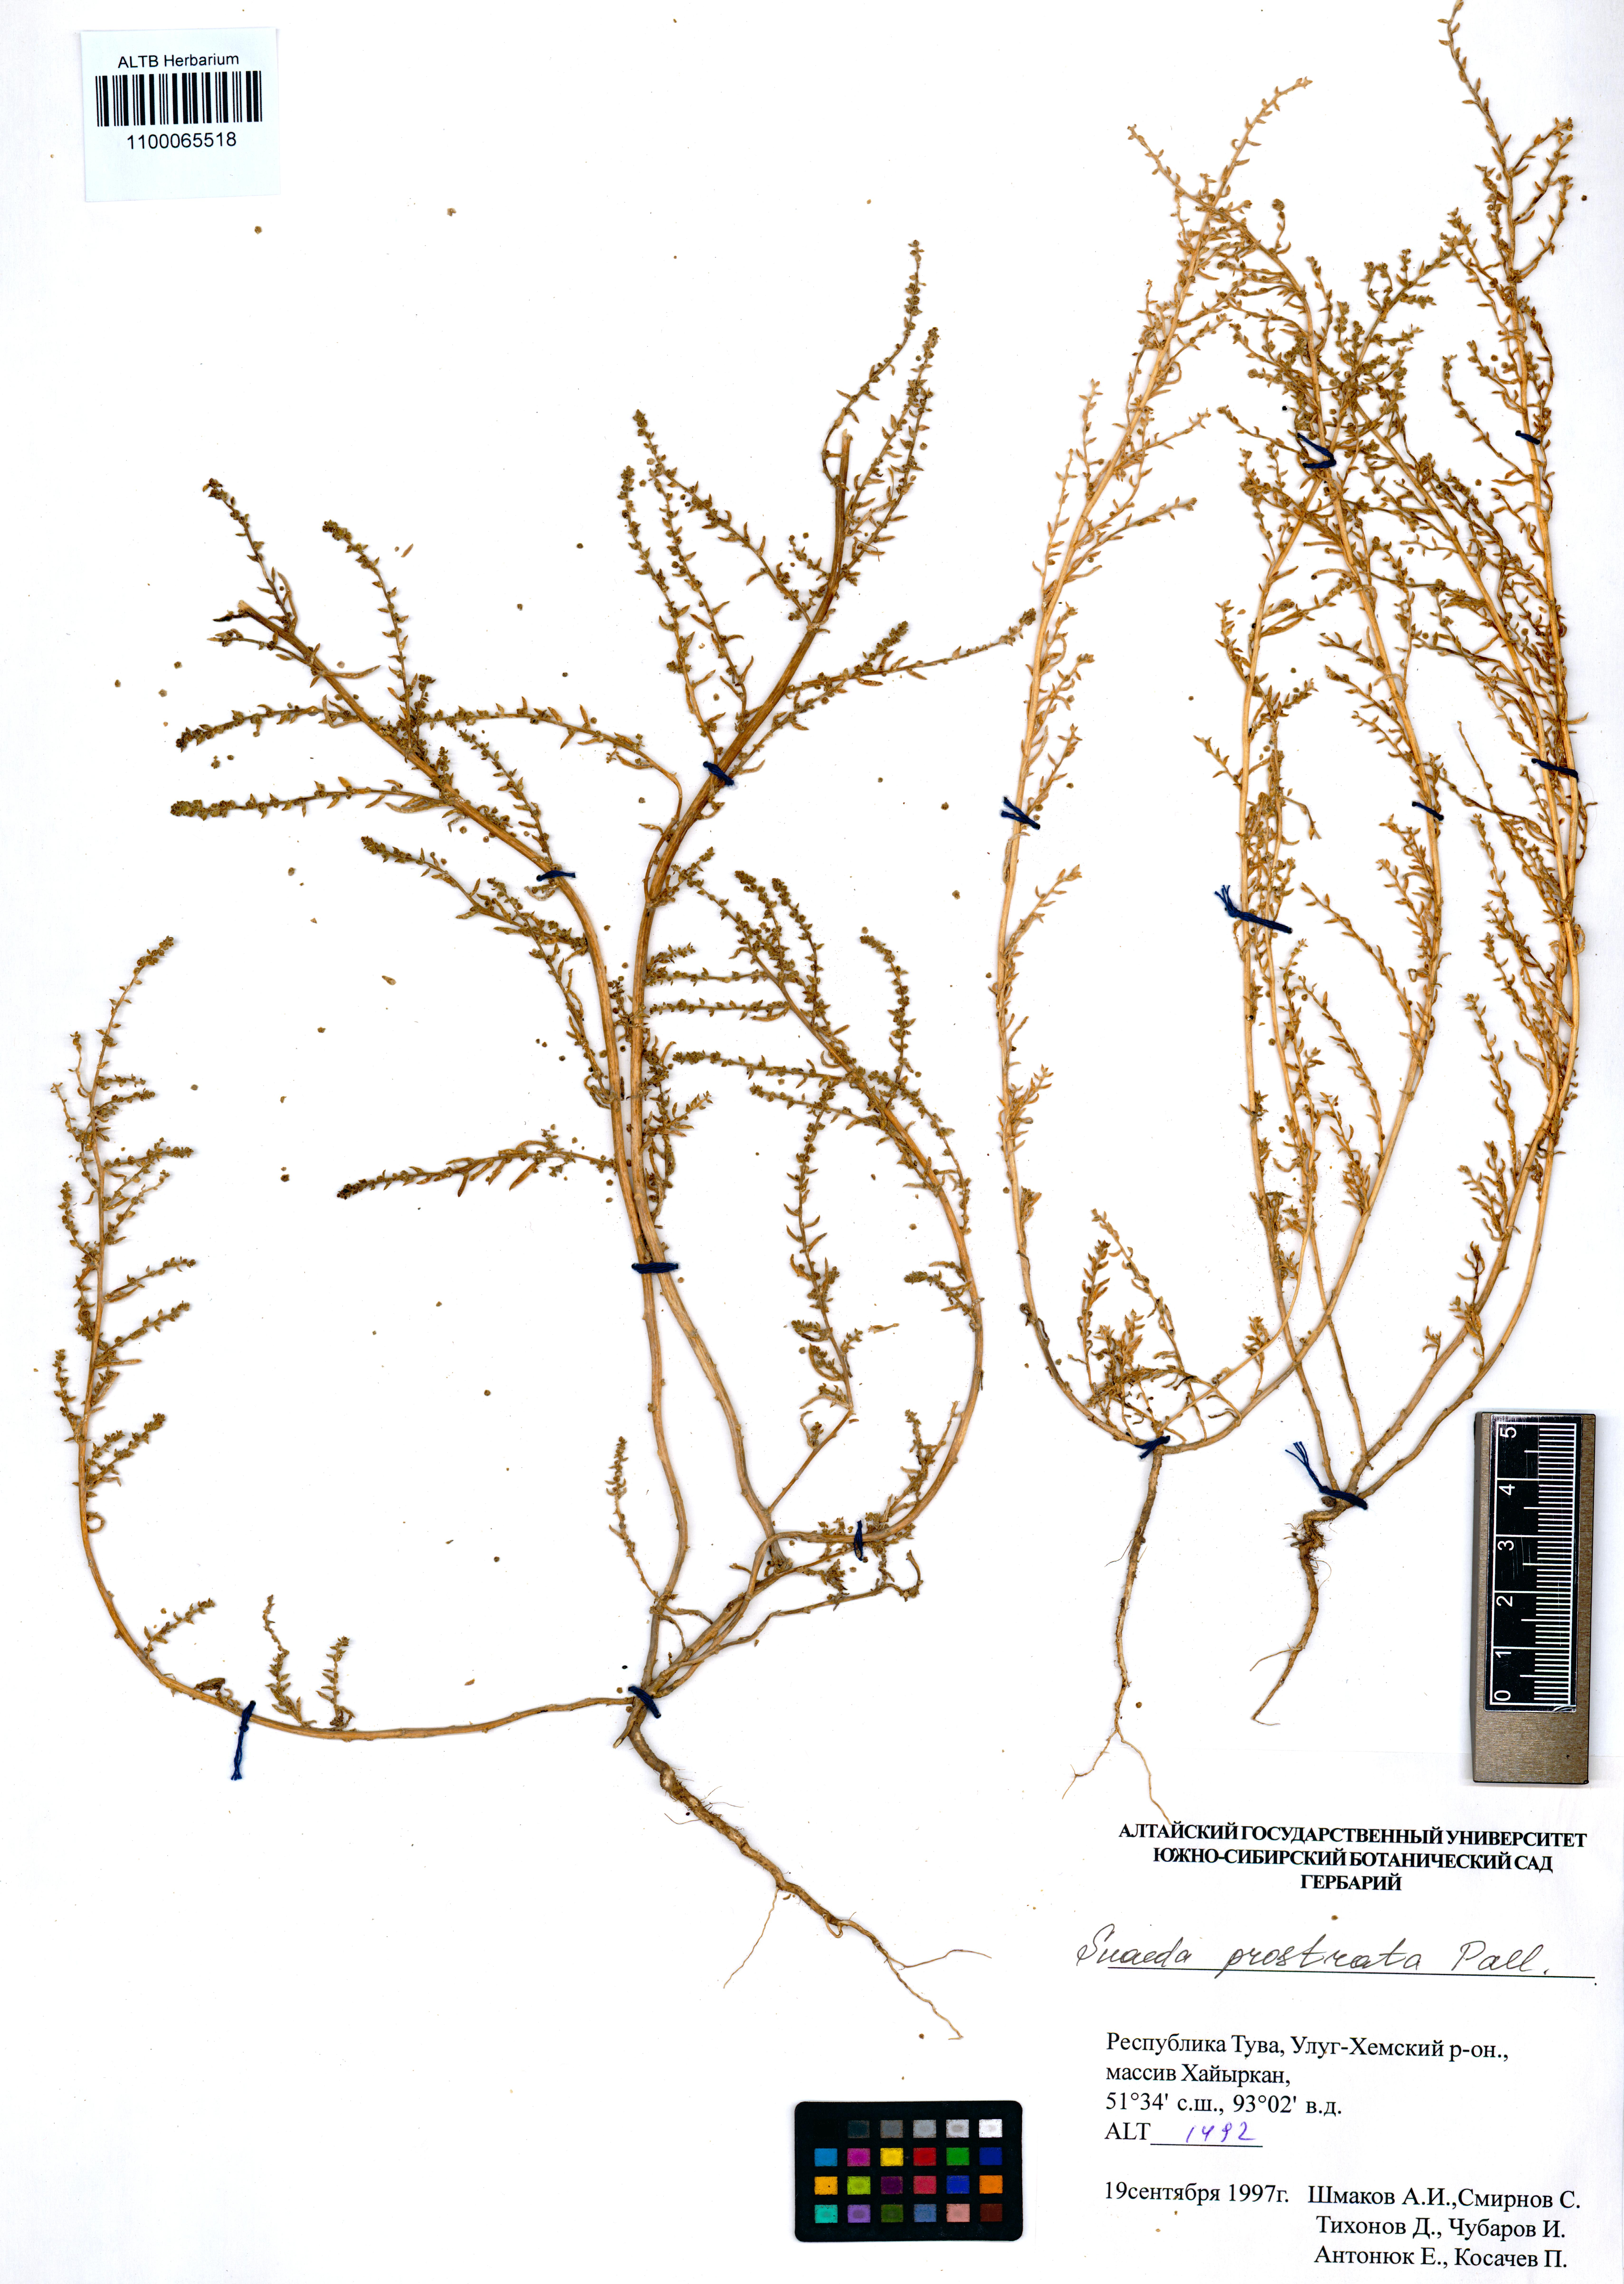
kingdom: Plantae
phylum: Tracheophyta
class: Magnoliopsida
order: Caryophyllales
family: Amaranthaceae
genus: Suaeda
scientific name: Suaeda prostrata
